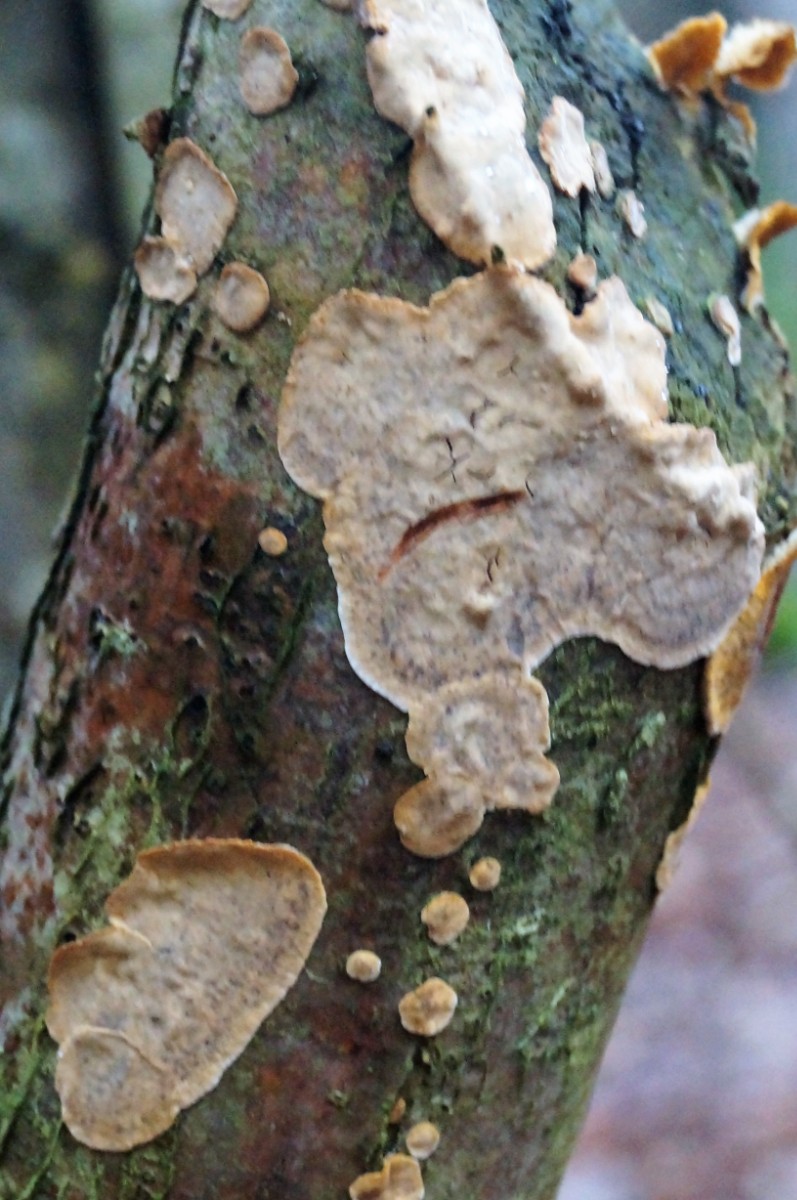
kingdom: Fungi
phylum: Basidiomycota
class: Agaricomycetes
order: Russulales
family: Stereaceae
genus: Stereum
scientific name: Stereum rugosum
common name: rynket lædersvamp
